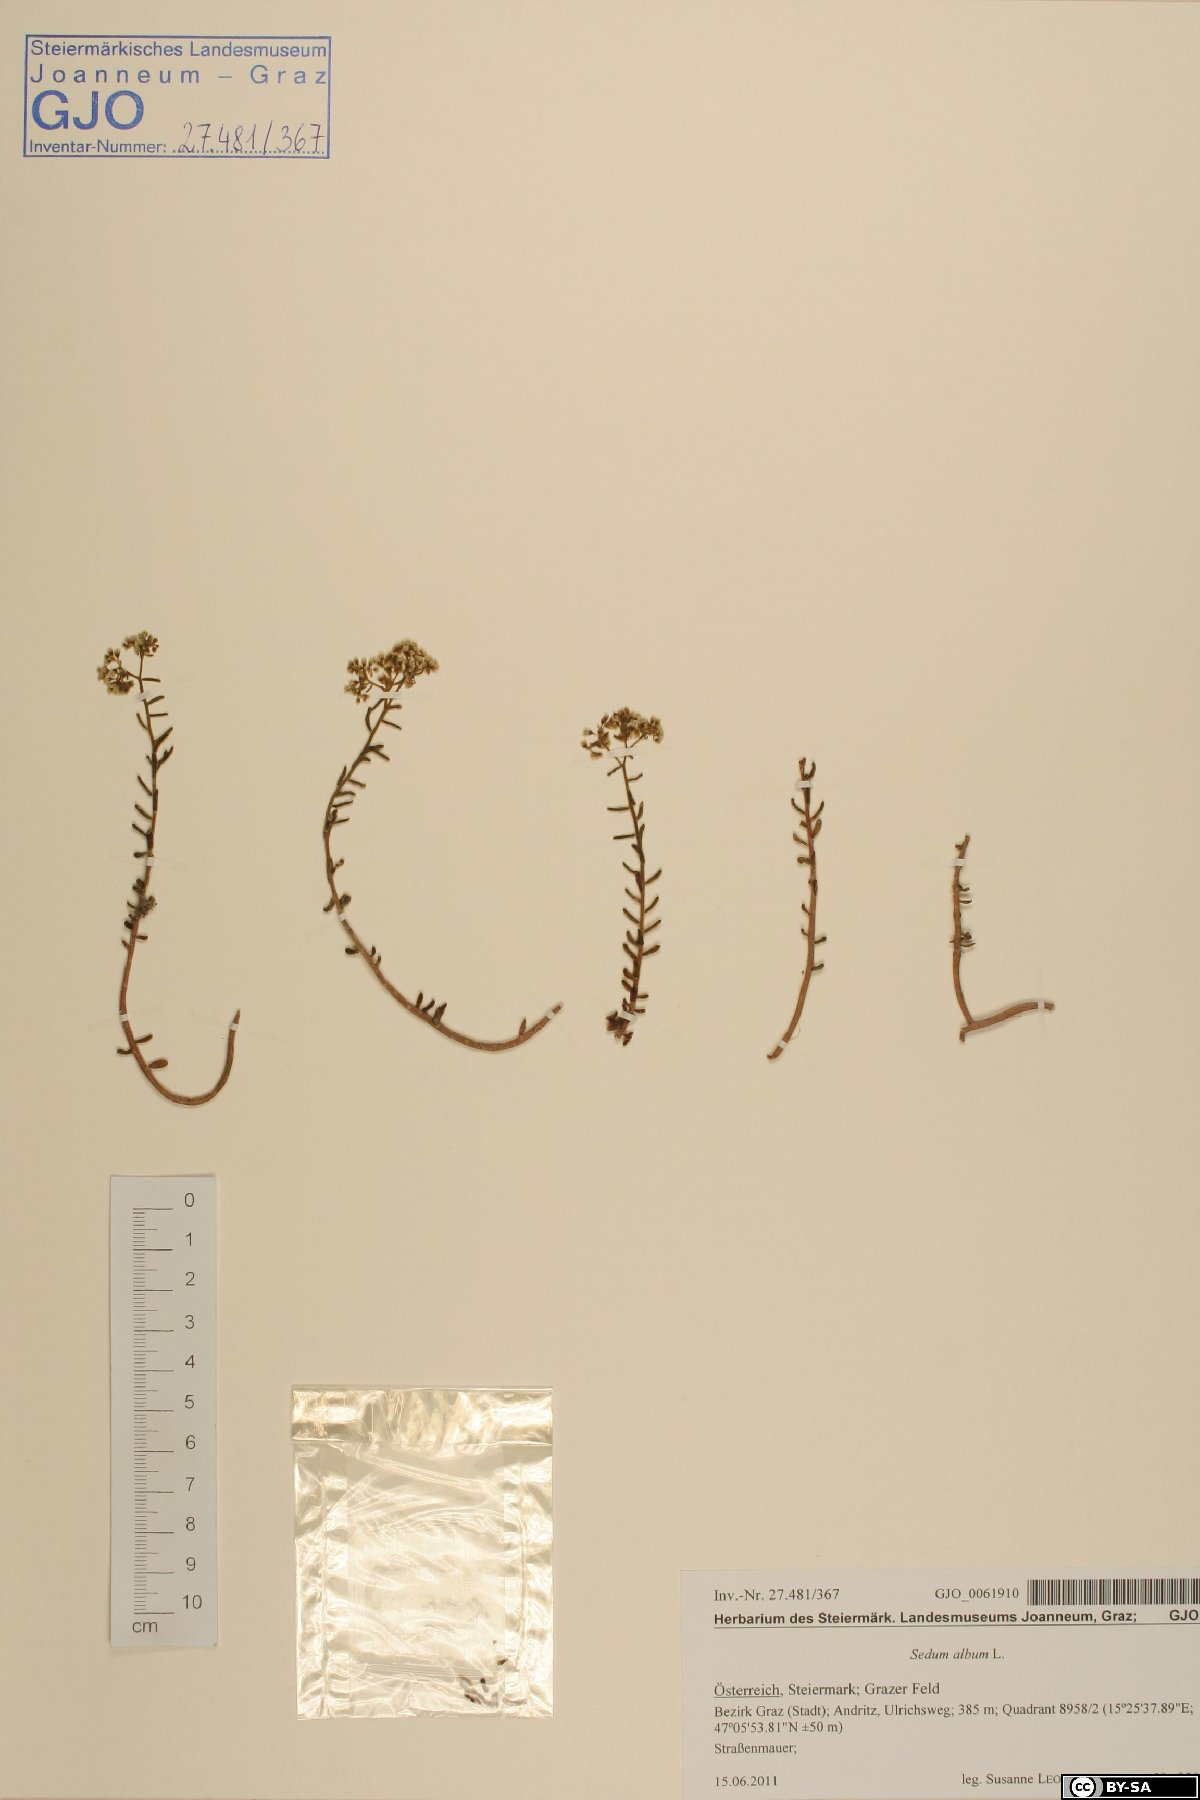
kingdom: Plantae
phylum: Tracheophyta
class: Magnoliopsida
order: Saxifragales
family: Crassulaceae
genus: Sedum
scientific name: Sedum album
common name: White stonecrop
